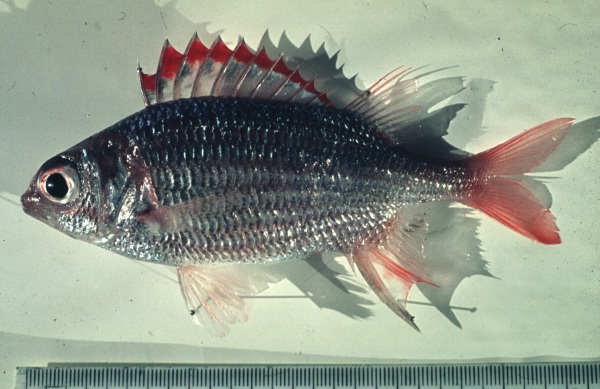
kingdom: Animalia
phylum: Chordata
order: Beryciformes
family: Holocentridae
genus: Sargocentron
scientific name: Sargocentron punctatissimum
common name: Peppered squirrelfish
